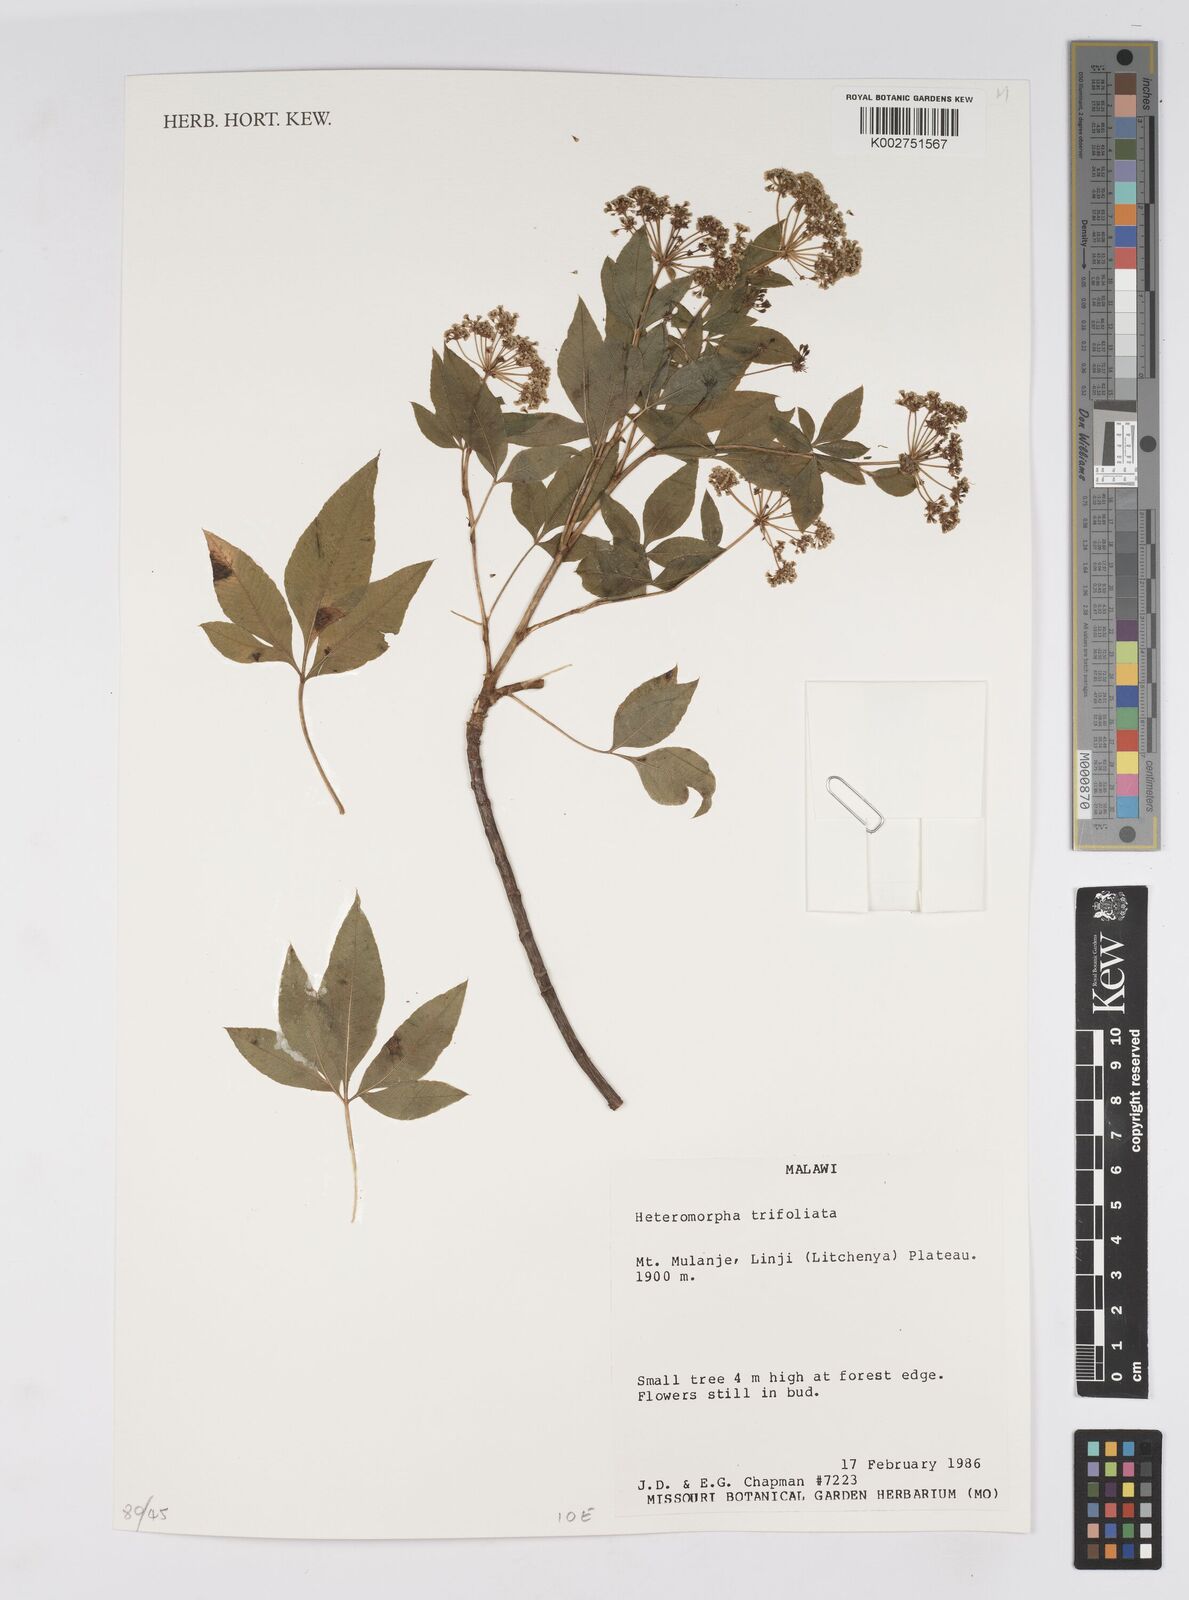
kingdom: Plantae
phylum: Tracheophyta
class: Magnoliopsida
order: Apiales
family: Apiaceae
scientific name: Apiaceae
